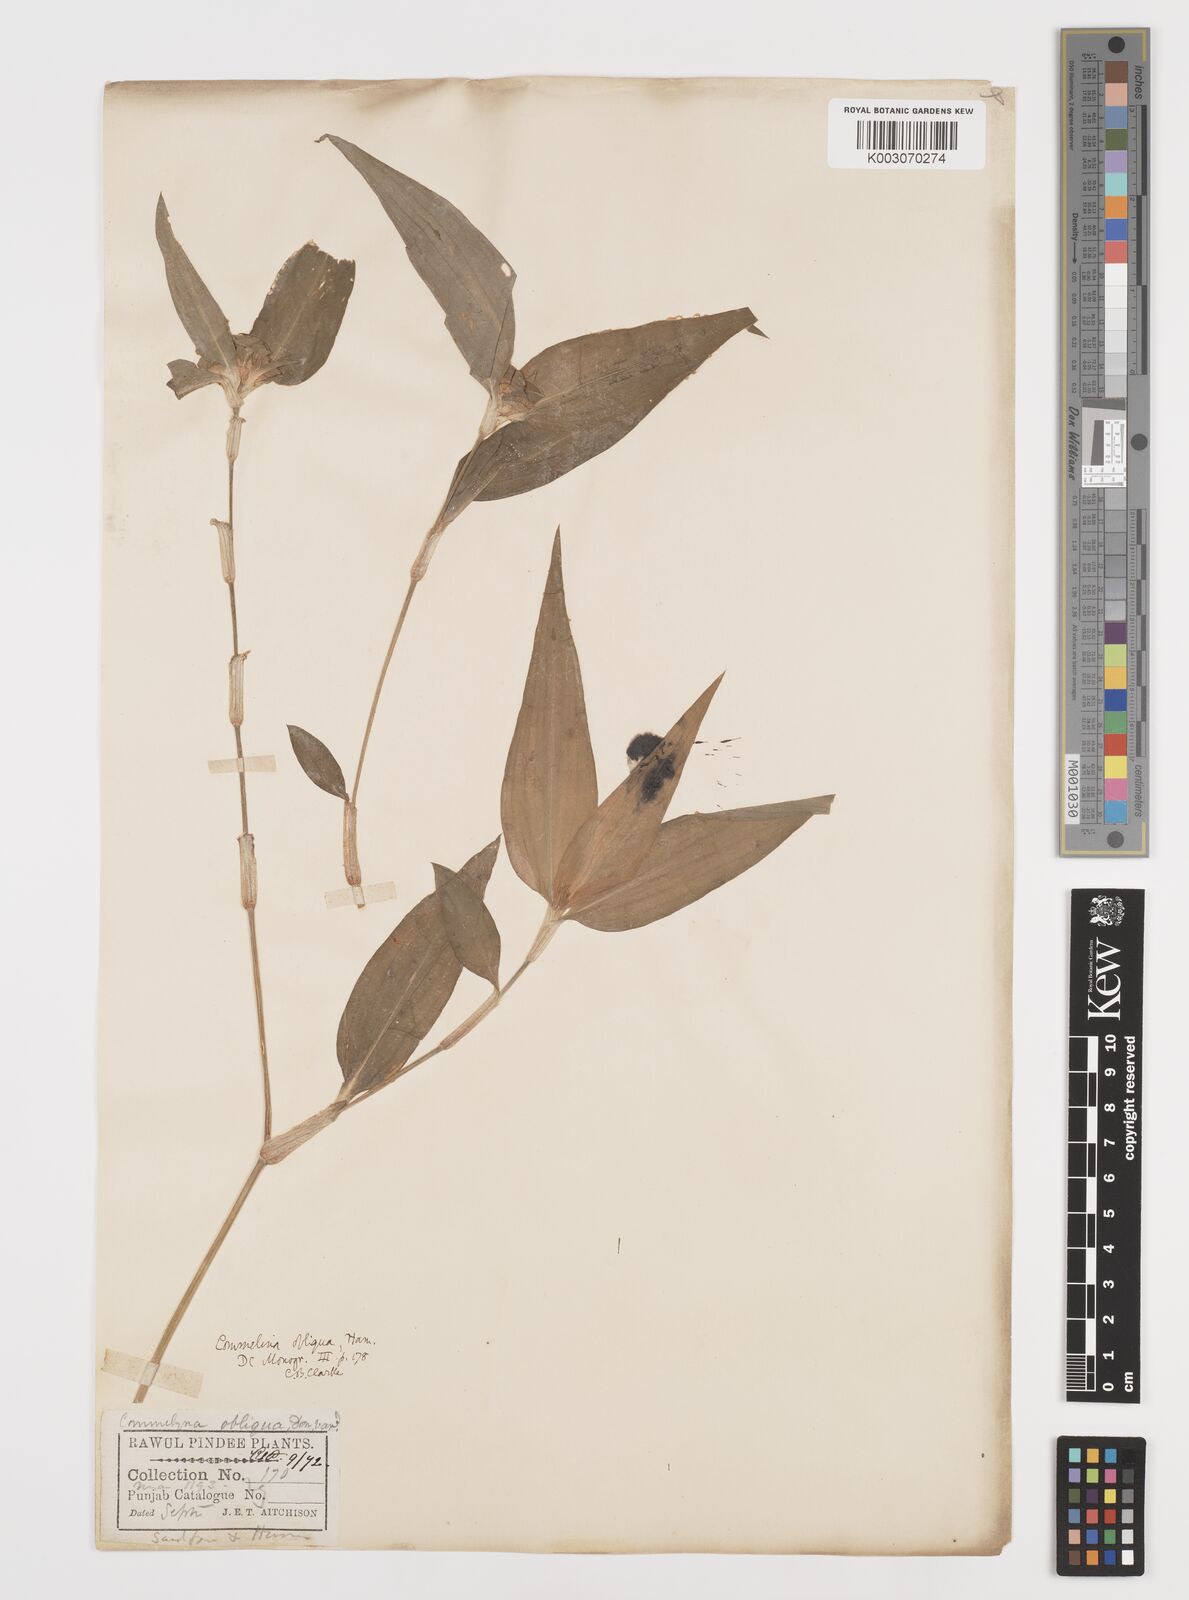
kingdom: Plantae
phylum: Tracheophyta
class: Liliopsida
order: Commelinales
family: Commelinaceae
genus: Commelina
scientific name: Commelina paludosa
